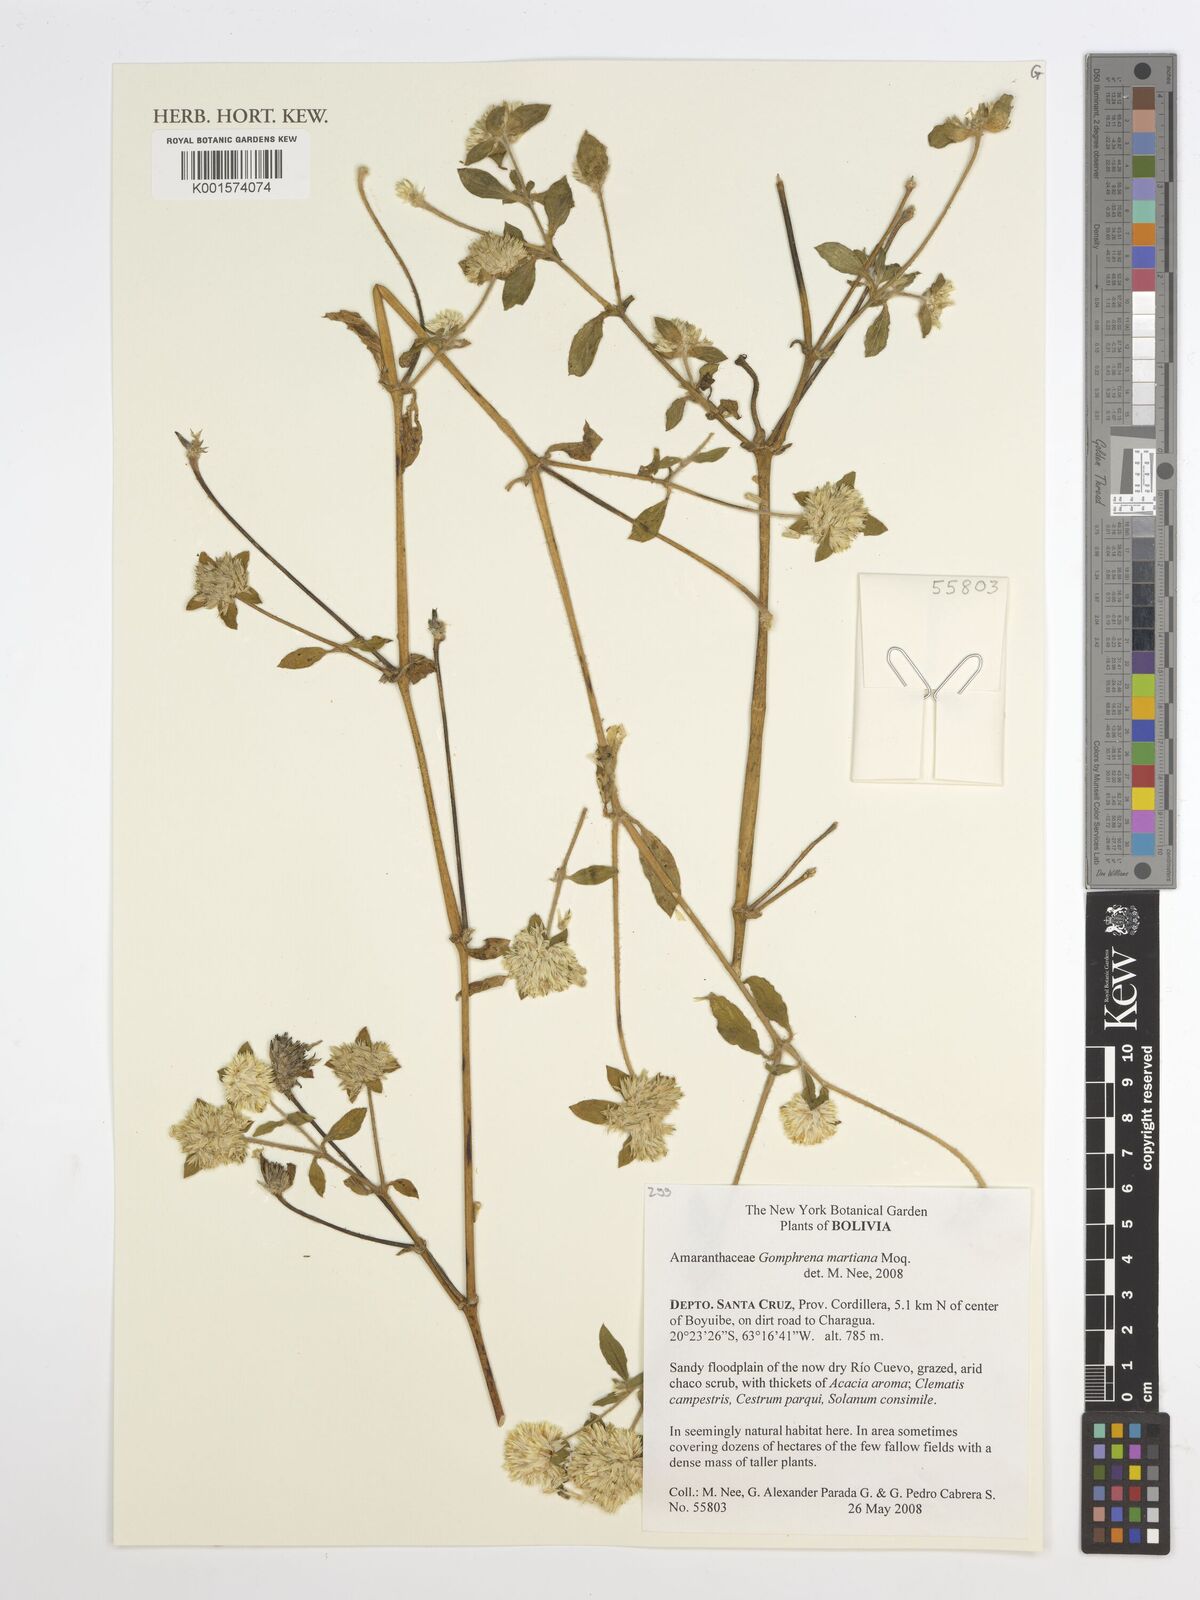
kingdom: Plantae
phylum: Tracheophyta
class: Magnoliopsida
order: Caryophyllales
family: Amaranthaceae
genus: Gomphrena
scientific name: Gomphrena martiana
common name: Globe amaranth
